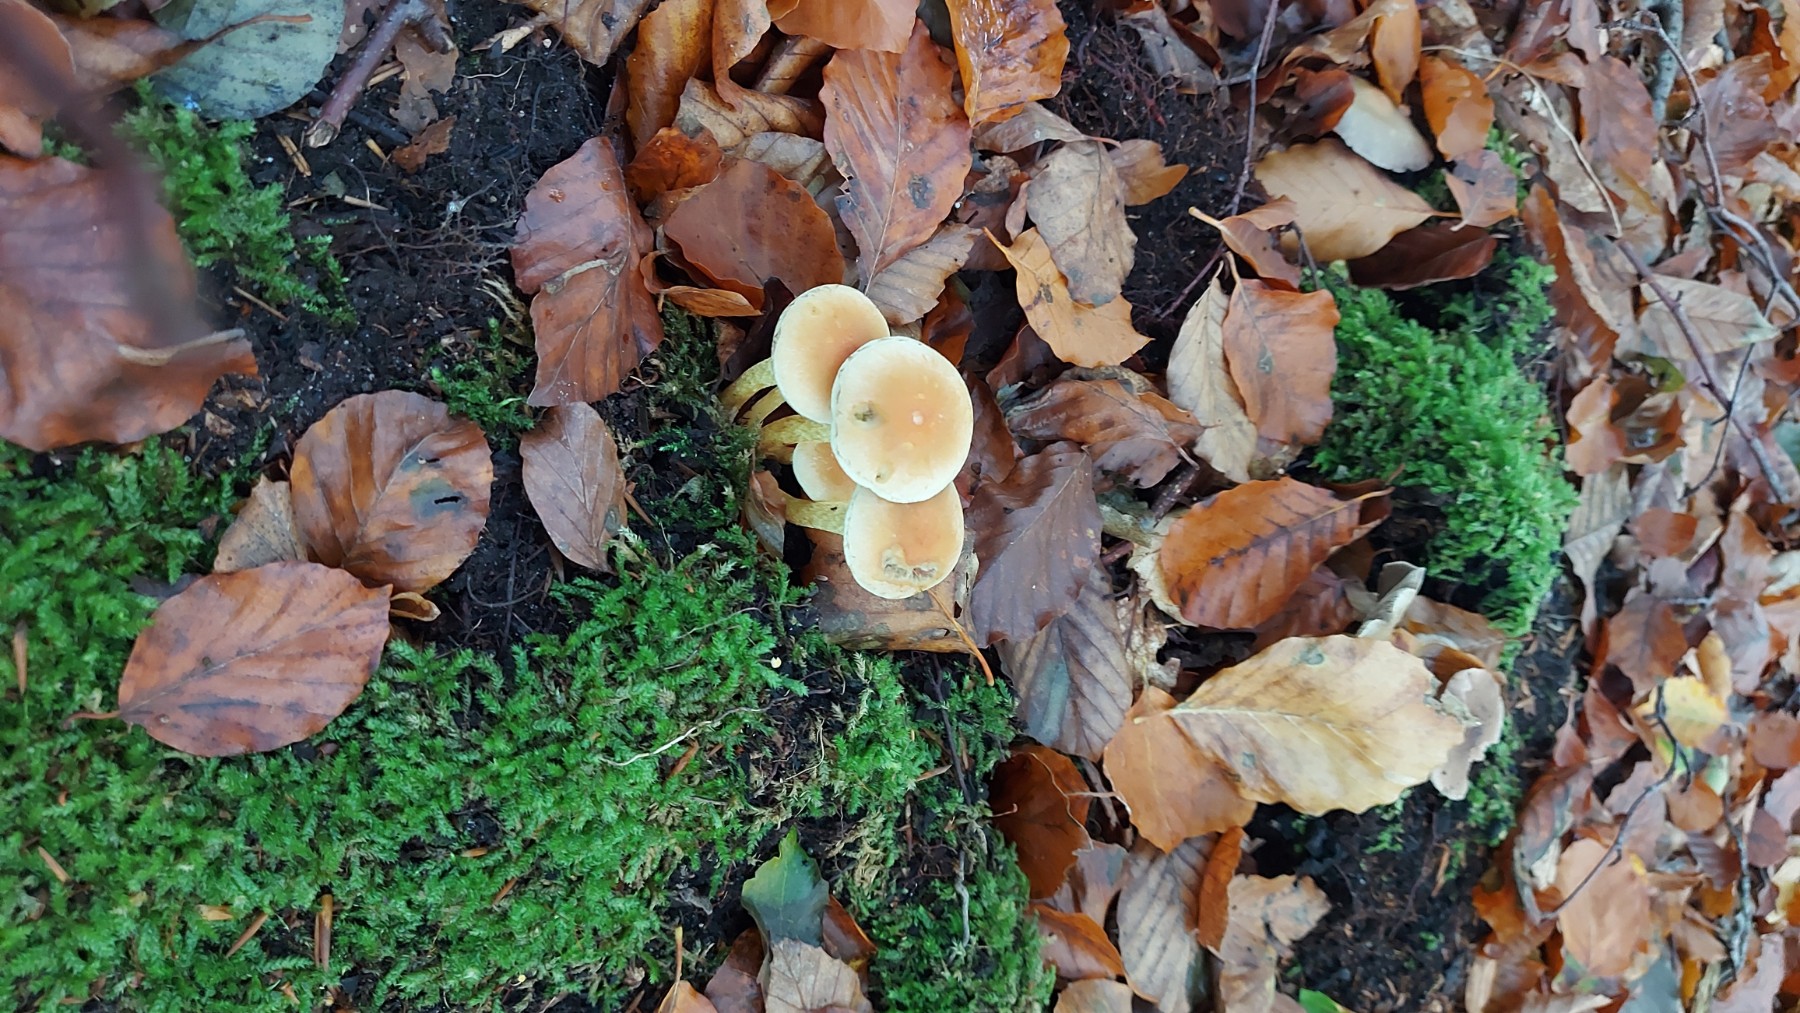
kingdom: Fungi
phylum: Basidiomycota
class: Agaricomycetes
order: Agaricales
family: Strophariaceae
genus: Hypholoma
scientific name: Hypholoma fasciculare
